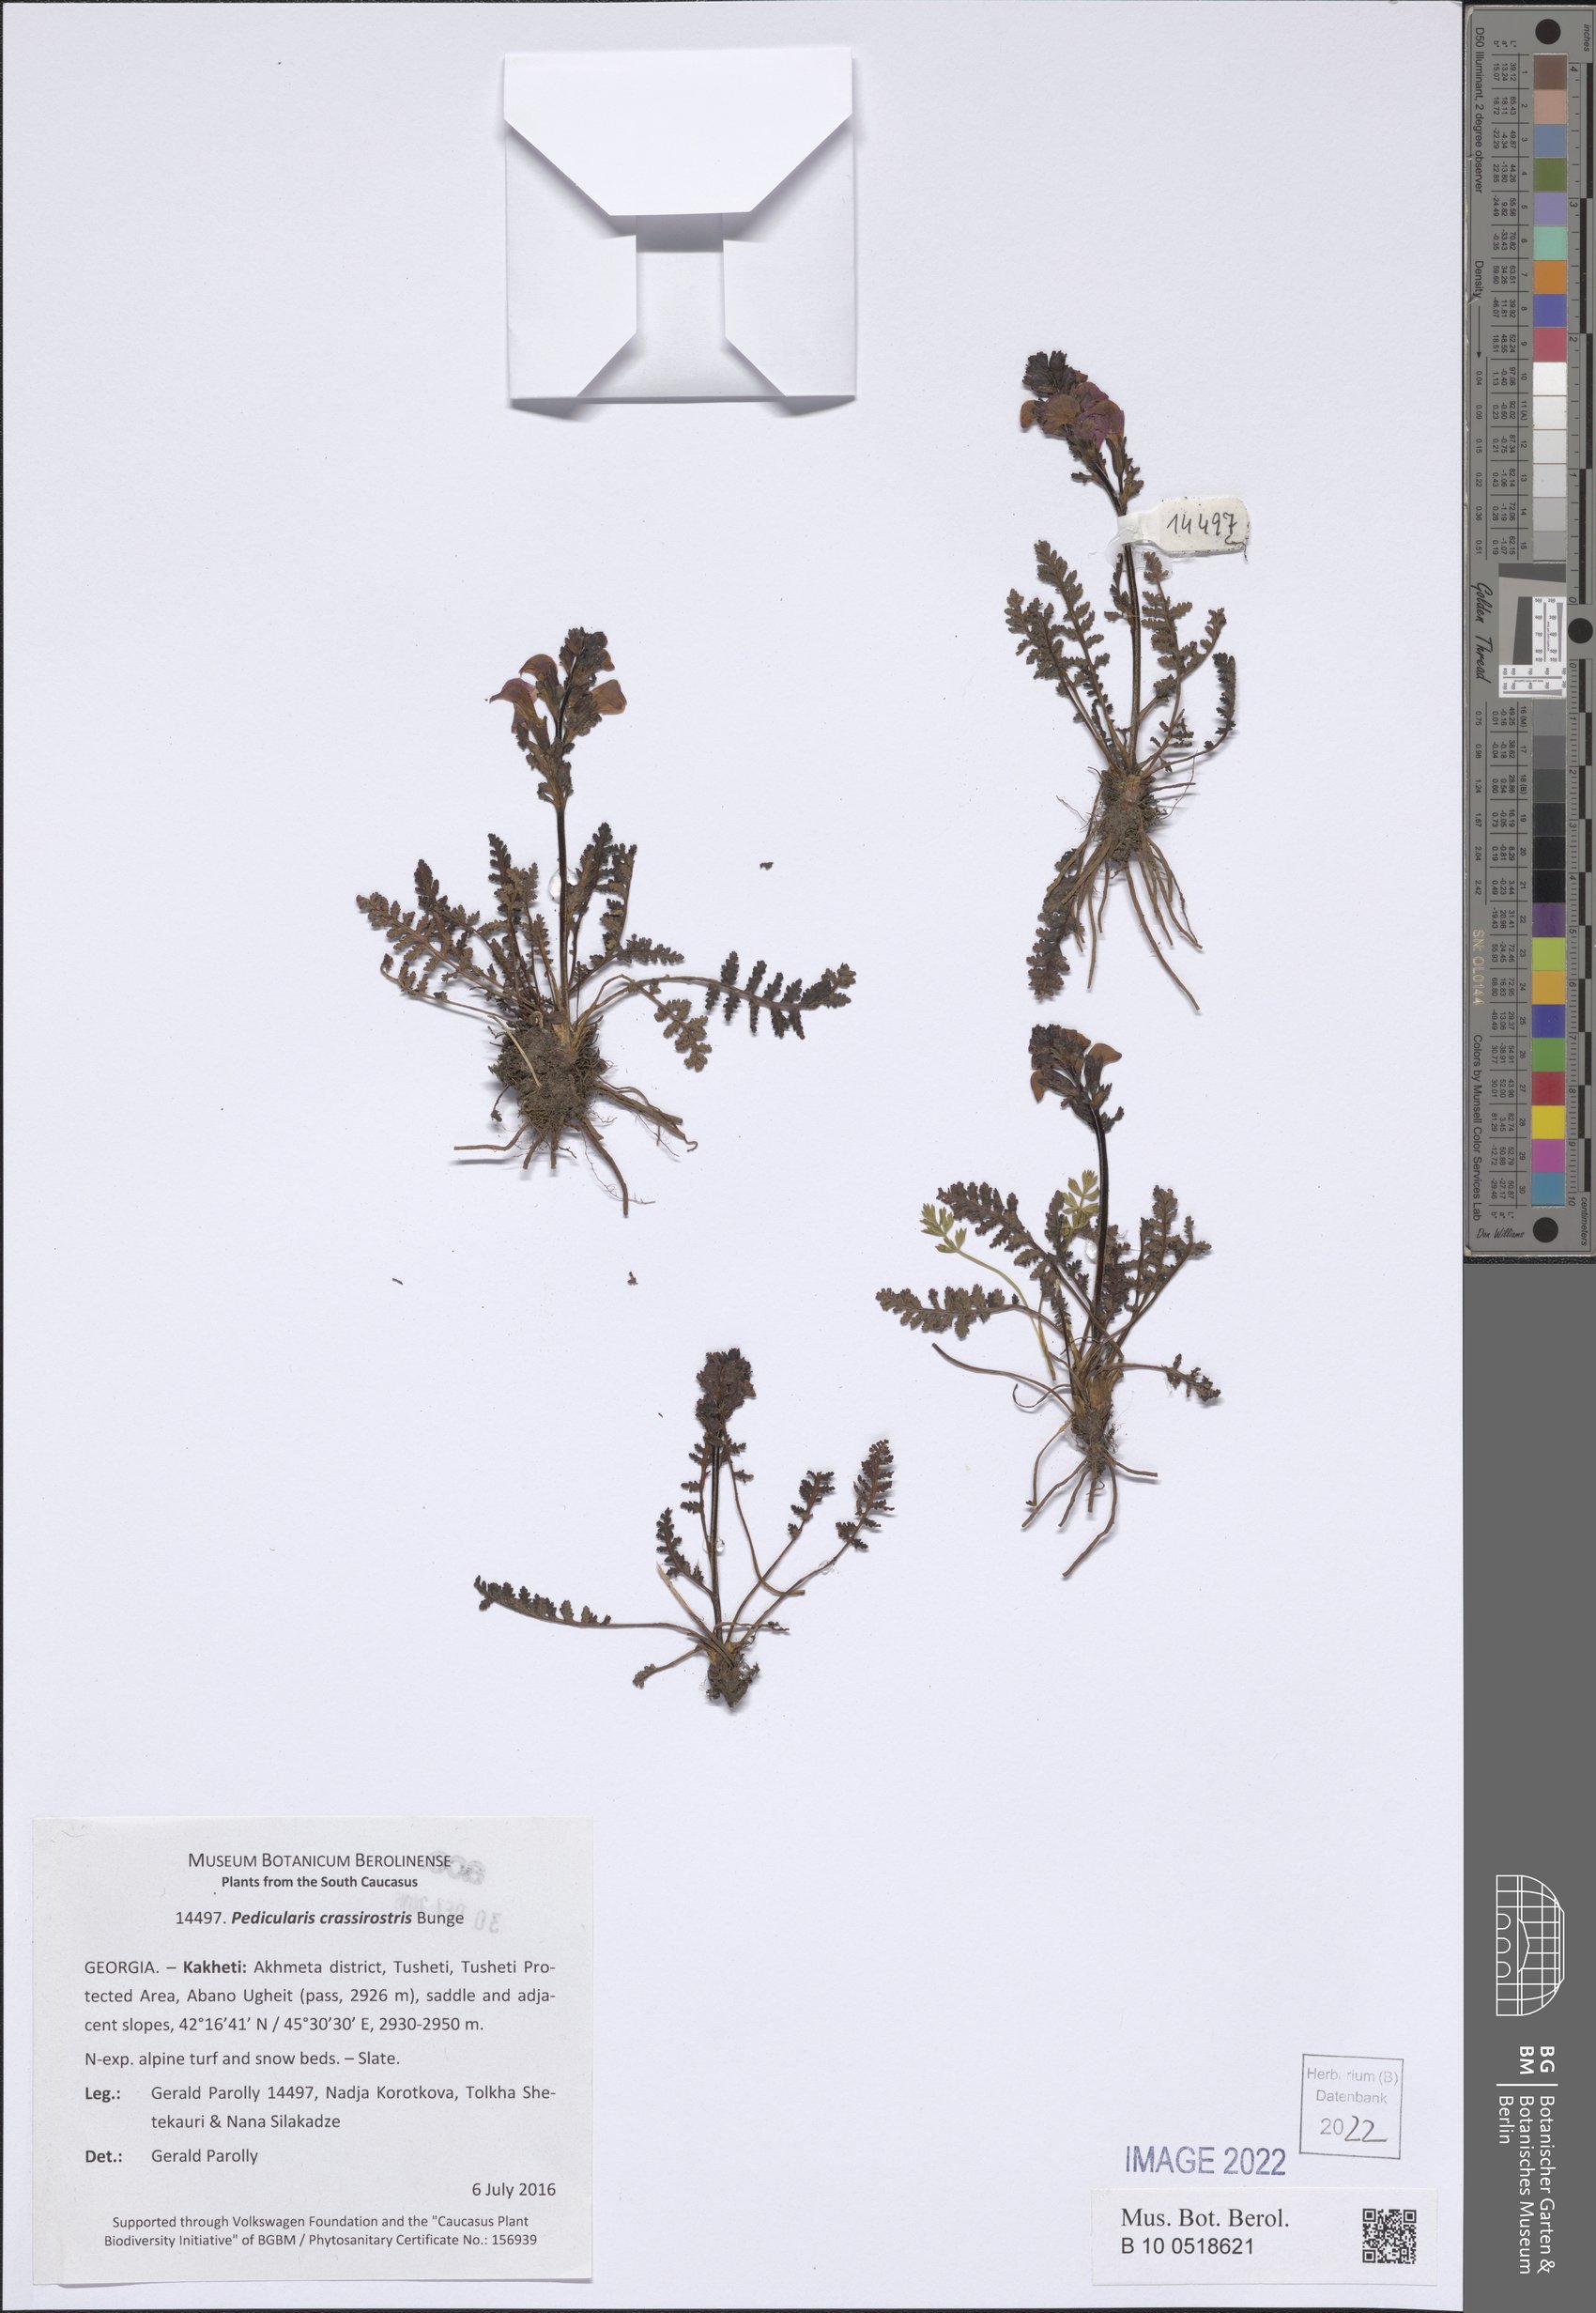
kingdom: Plantae
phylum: Tracheophyta
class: Magnoliopsida
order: Lamiales
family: Orobanchaceae
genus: Pedicularis
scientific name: Pedicularis crassirostris
